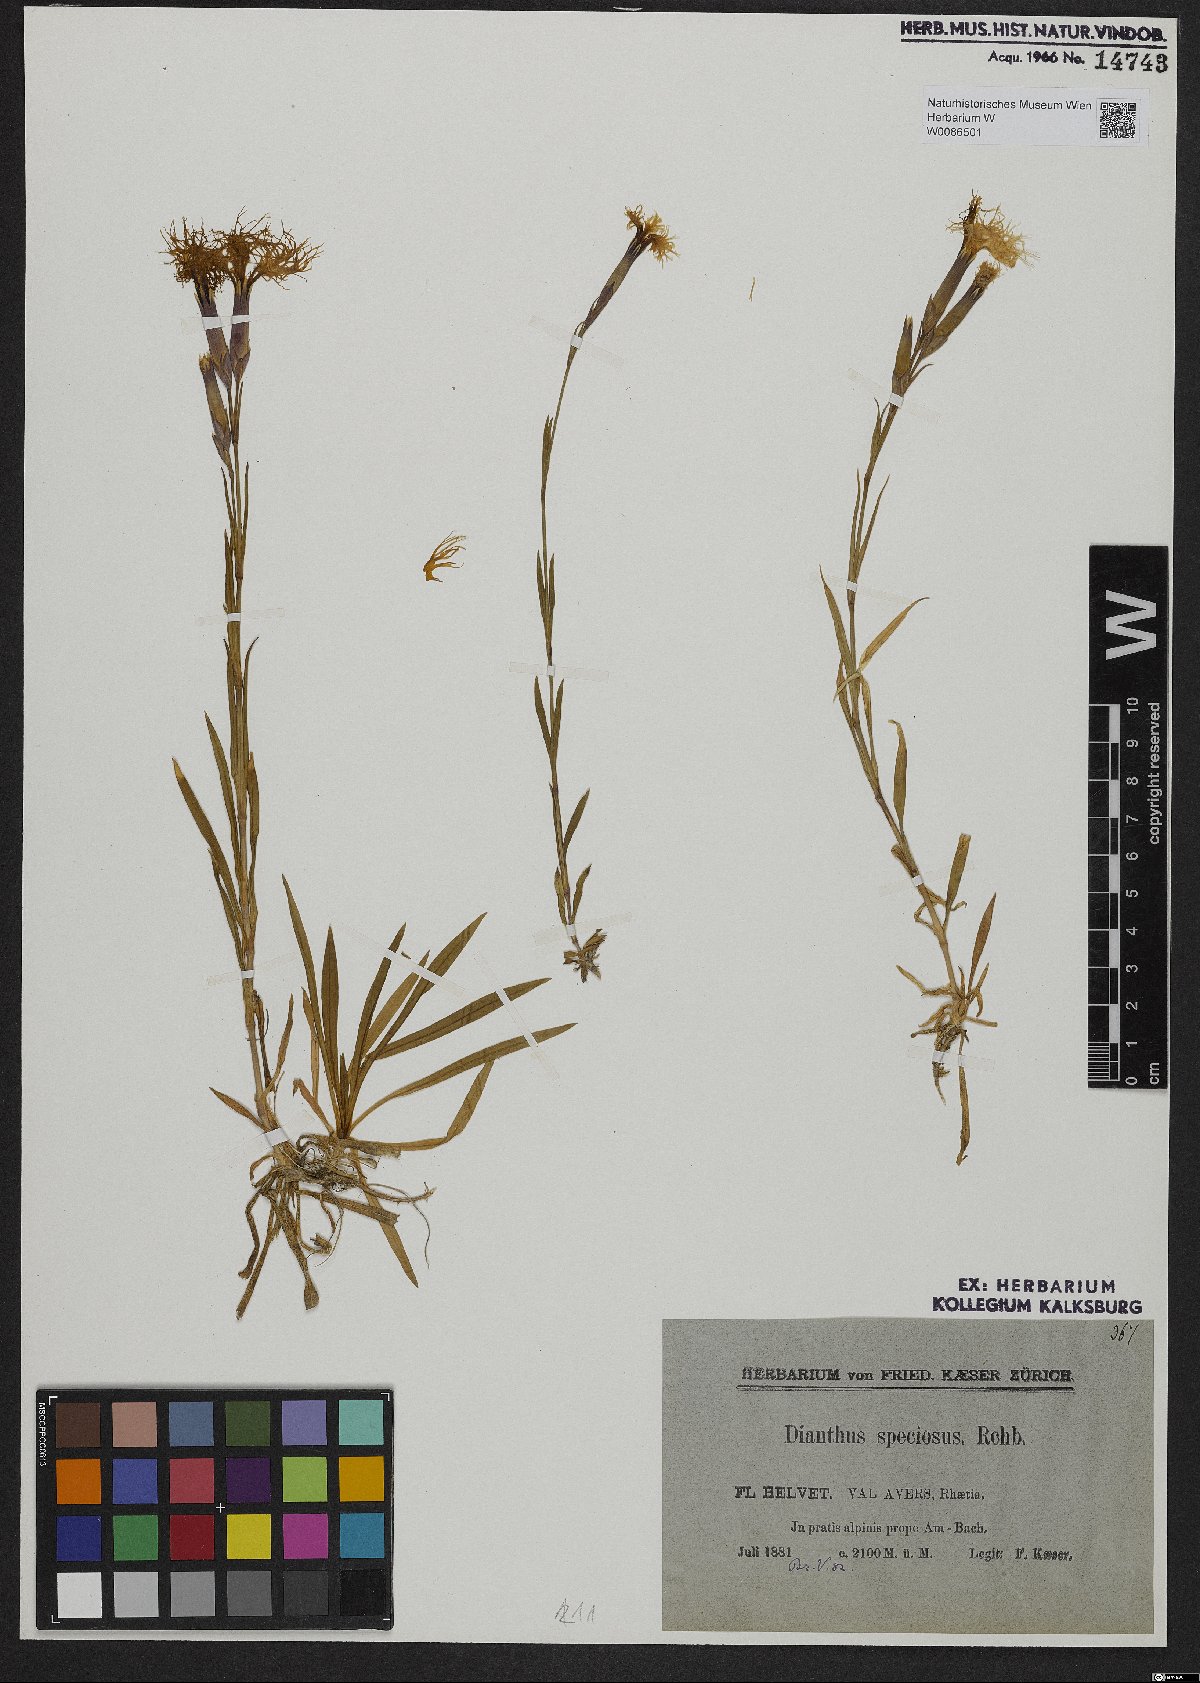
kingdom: Plantae
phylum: Tracheophyta
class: Magnoliopsida
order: Caryophyllales
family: Caryophyllaceae
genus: Dianthus
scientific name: Dianthus superbus
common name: Fringed pink
